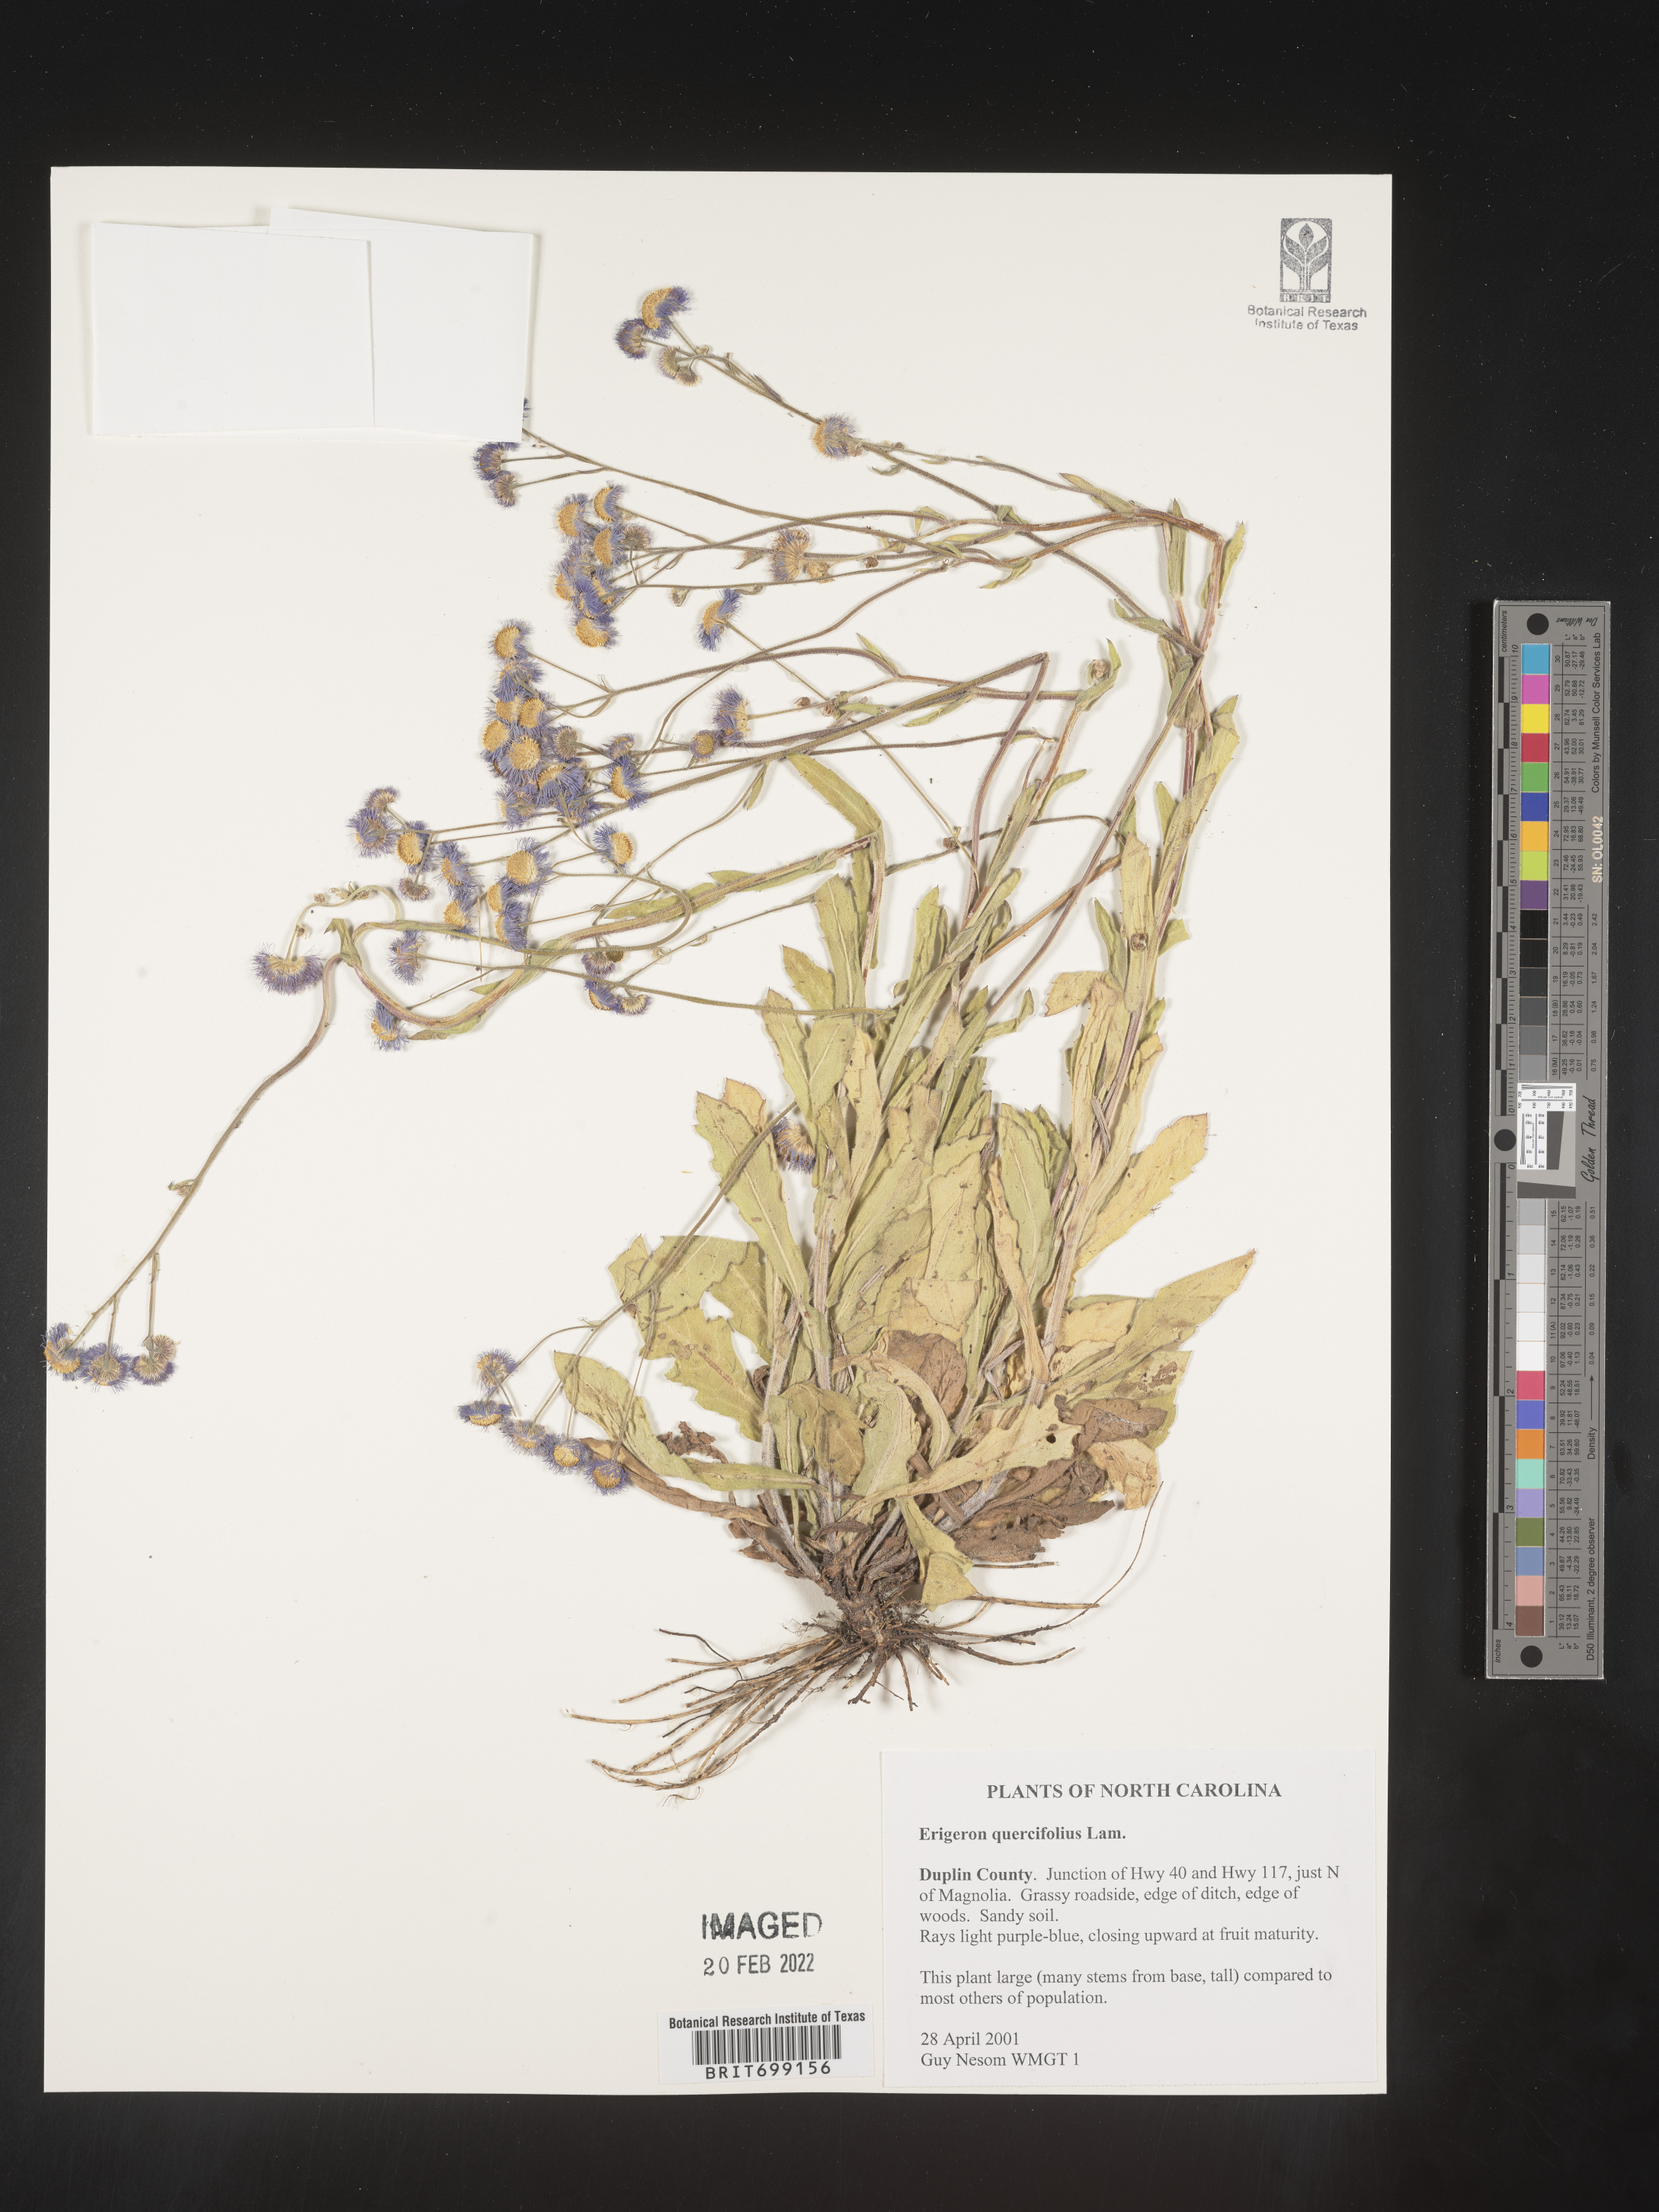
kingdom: Plantae
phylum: Tracheophyta
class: Magnoliopsida
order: Asterales
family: Asteraceae
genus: Erigeron
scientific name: Erigeron quercifolius
